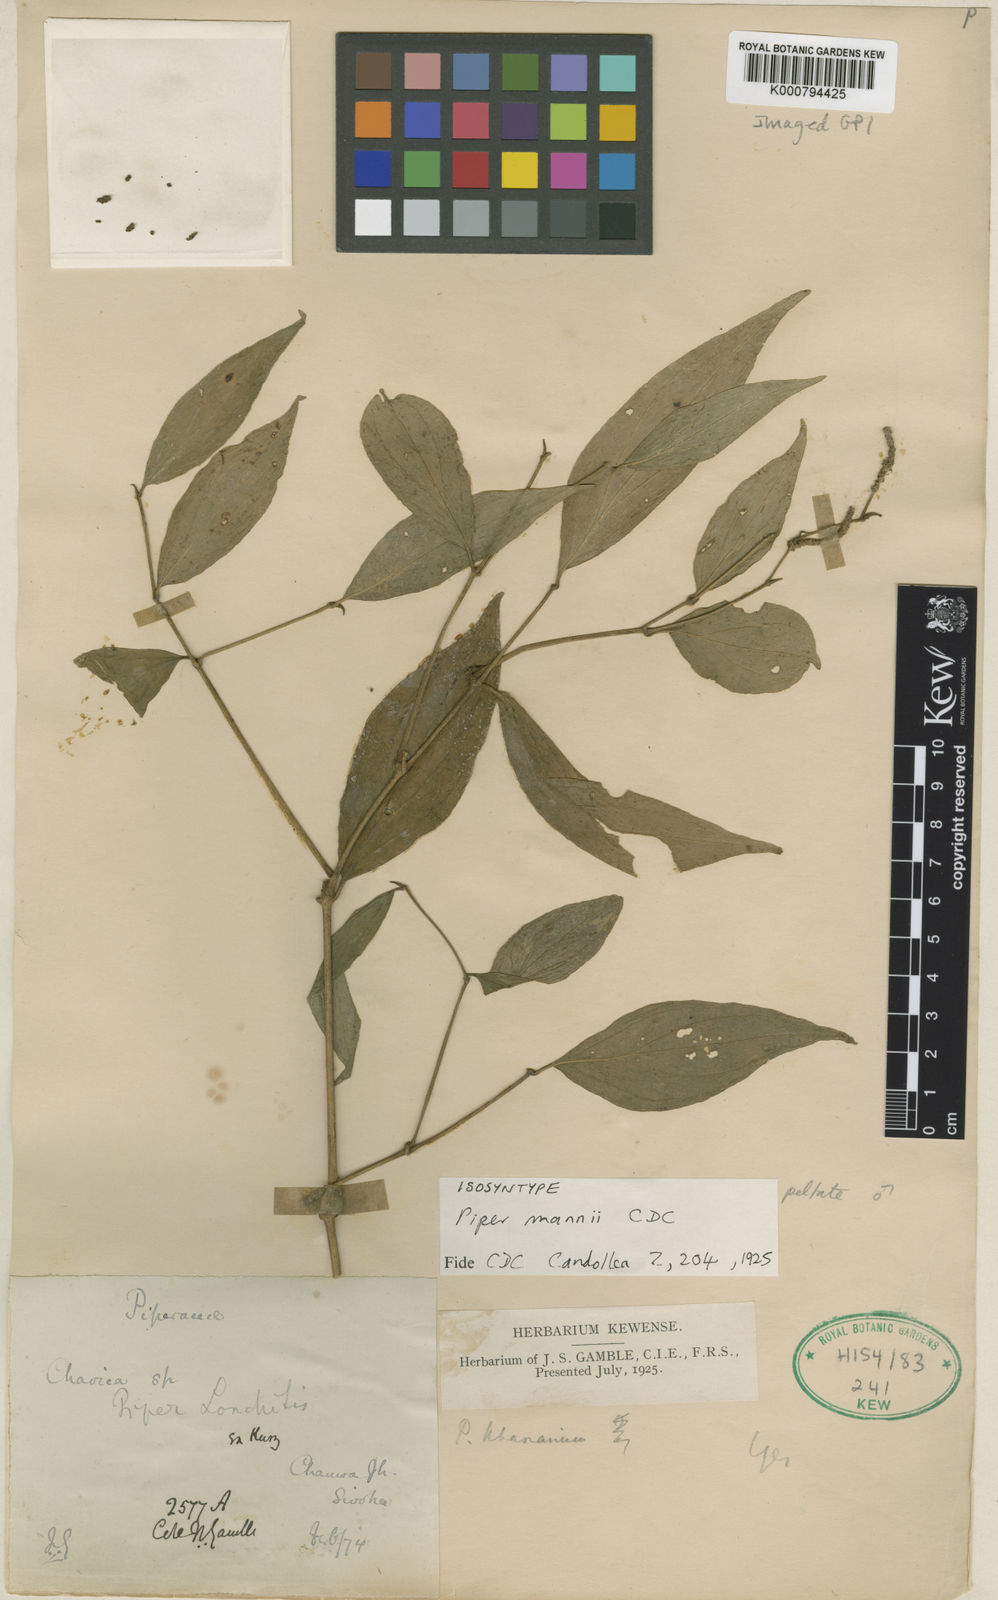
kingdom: Plantae
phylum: Tracheophyta
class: Magnoliopsida
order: Piperales
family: Piperaceae
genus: Piper
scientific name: Piper
